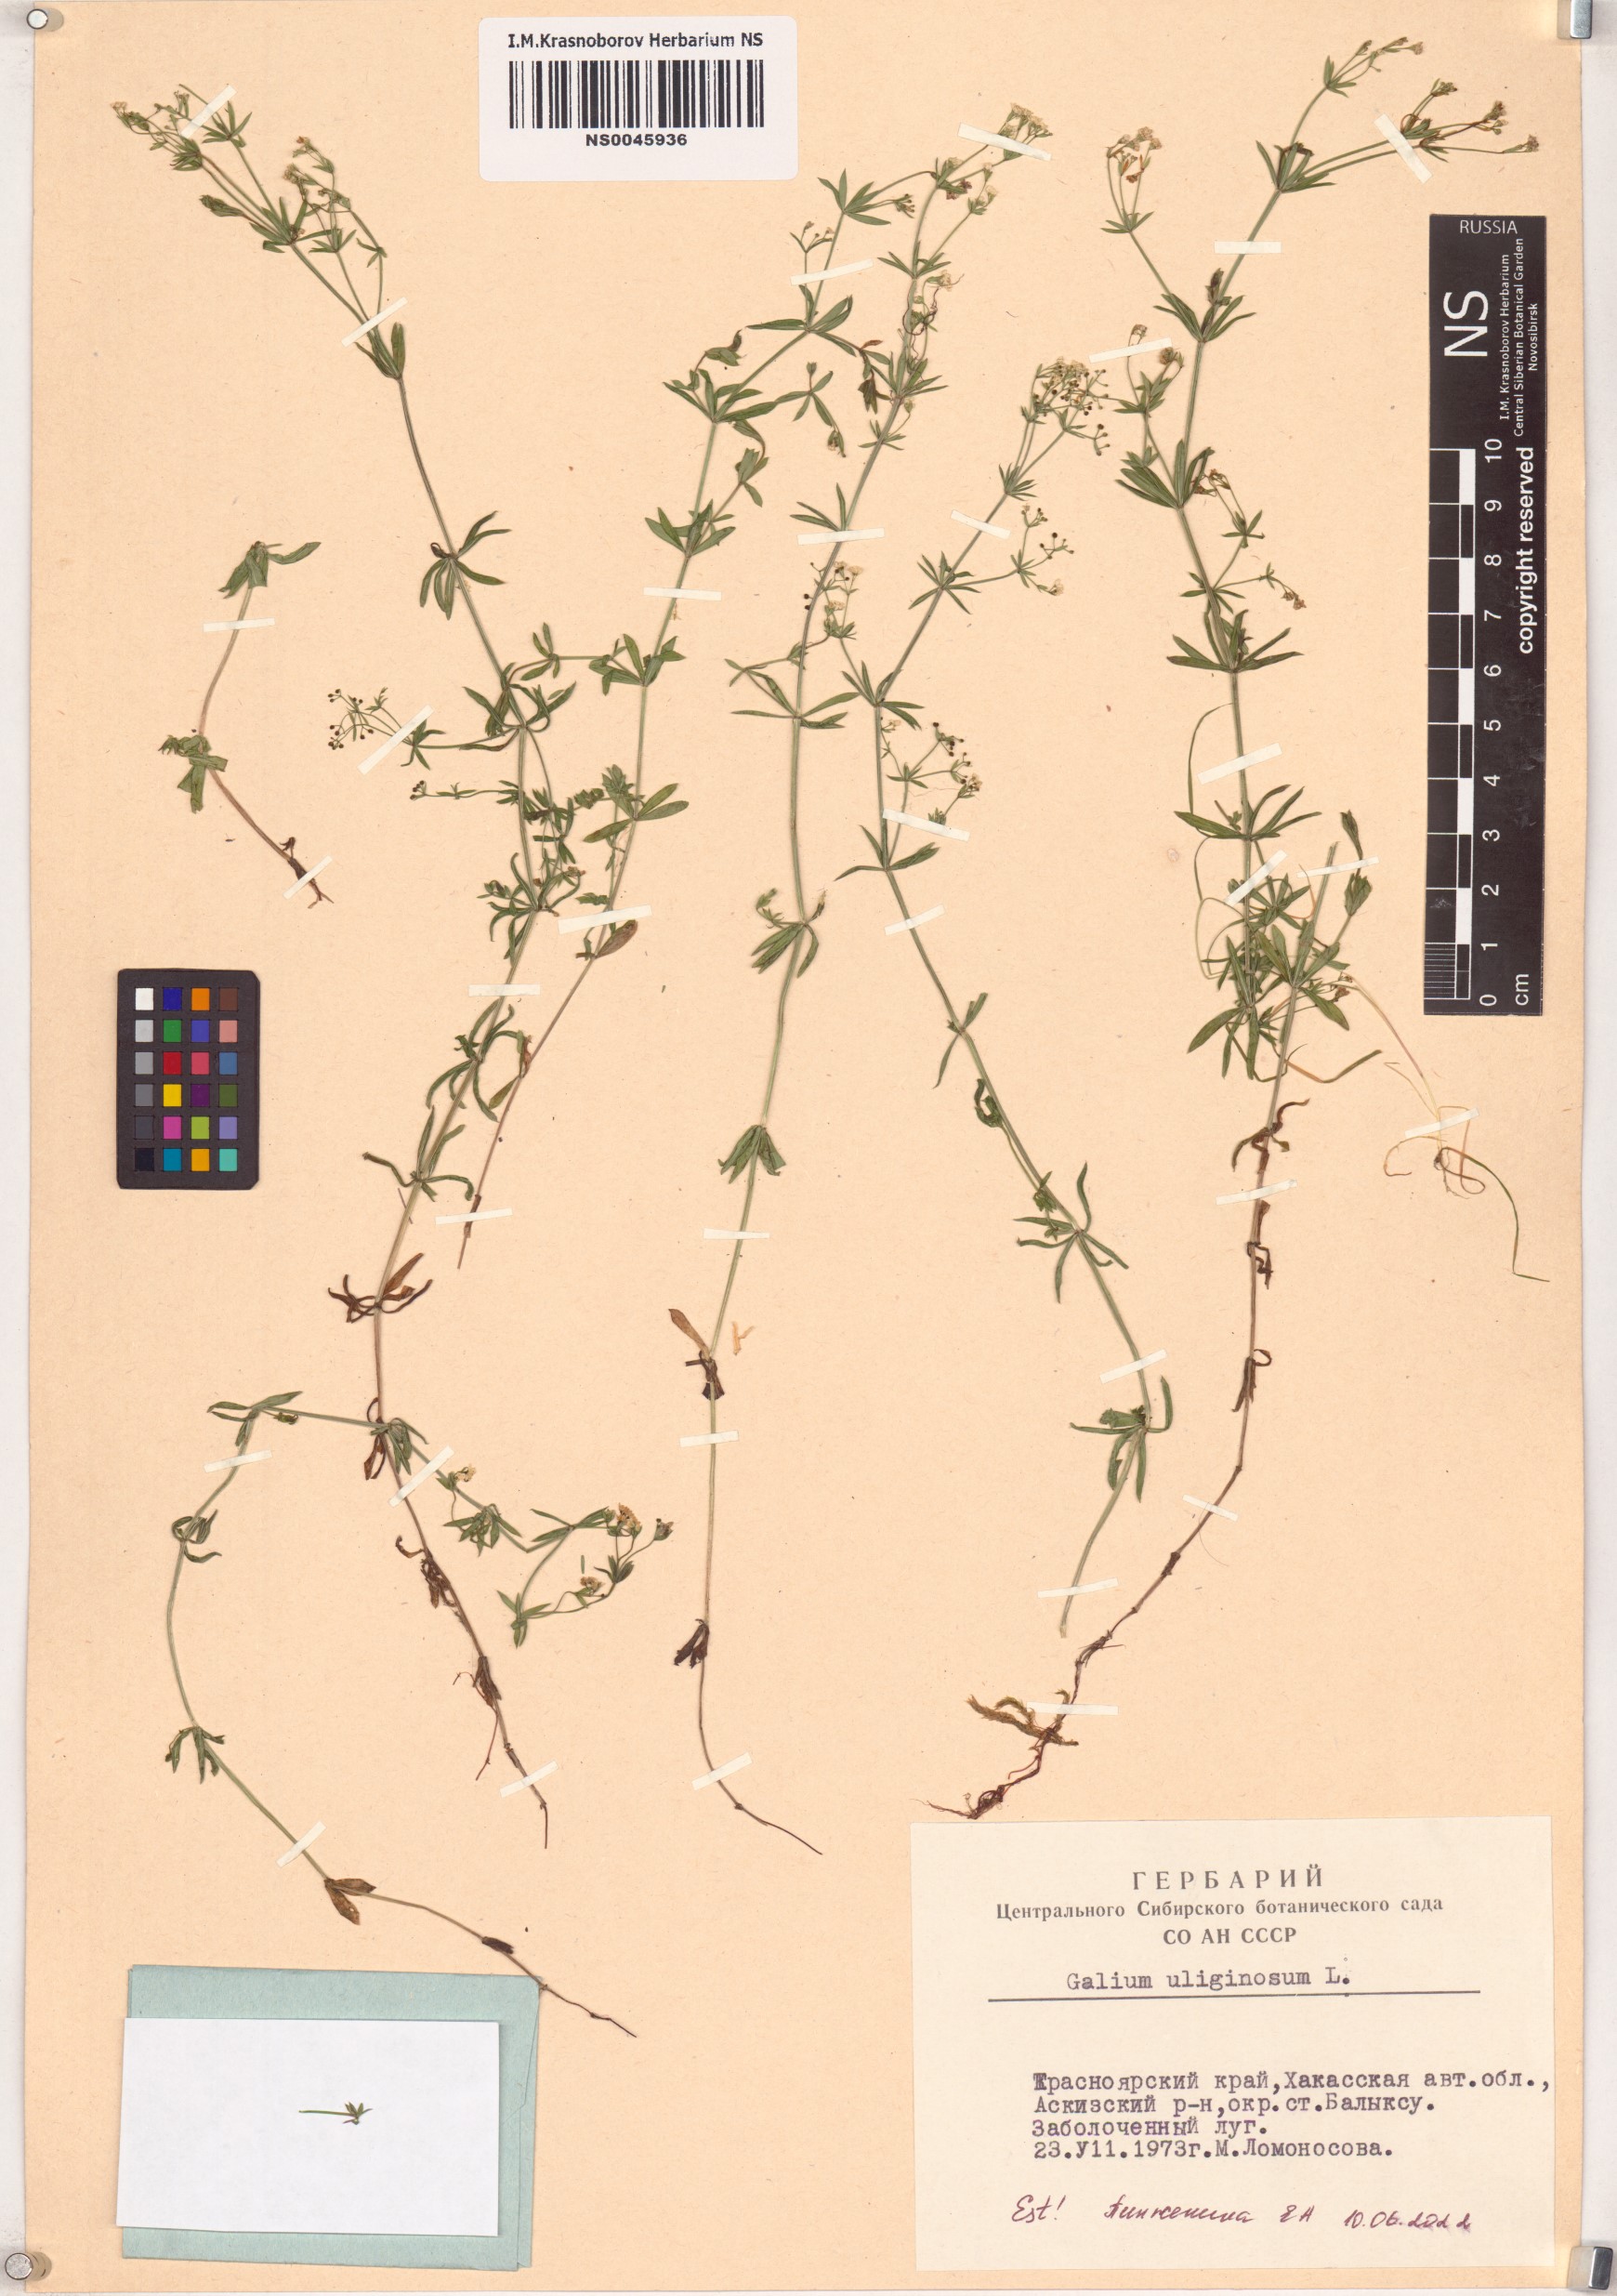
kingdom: Plantae
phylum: Tracheophyta
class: Magnoliopsida
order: Gentianales
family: Rubiaceae
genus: Galium
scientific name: Galium uliginosum
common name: Fen bedstraw
